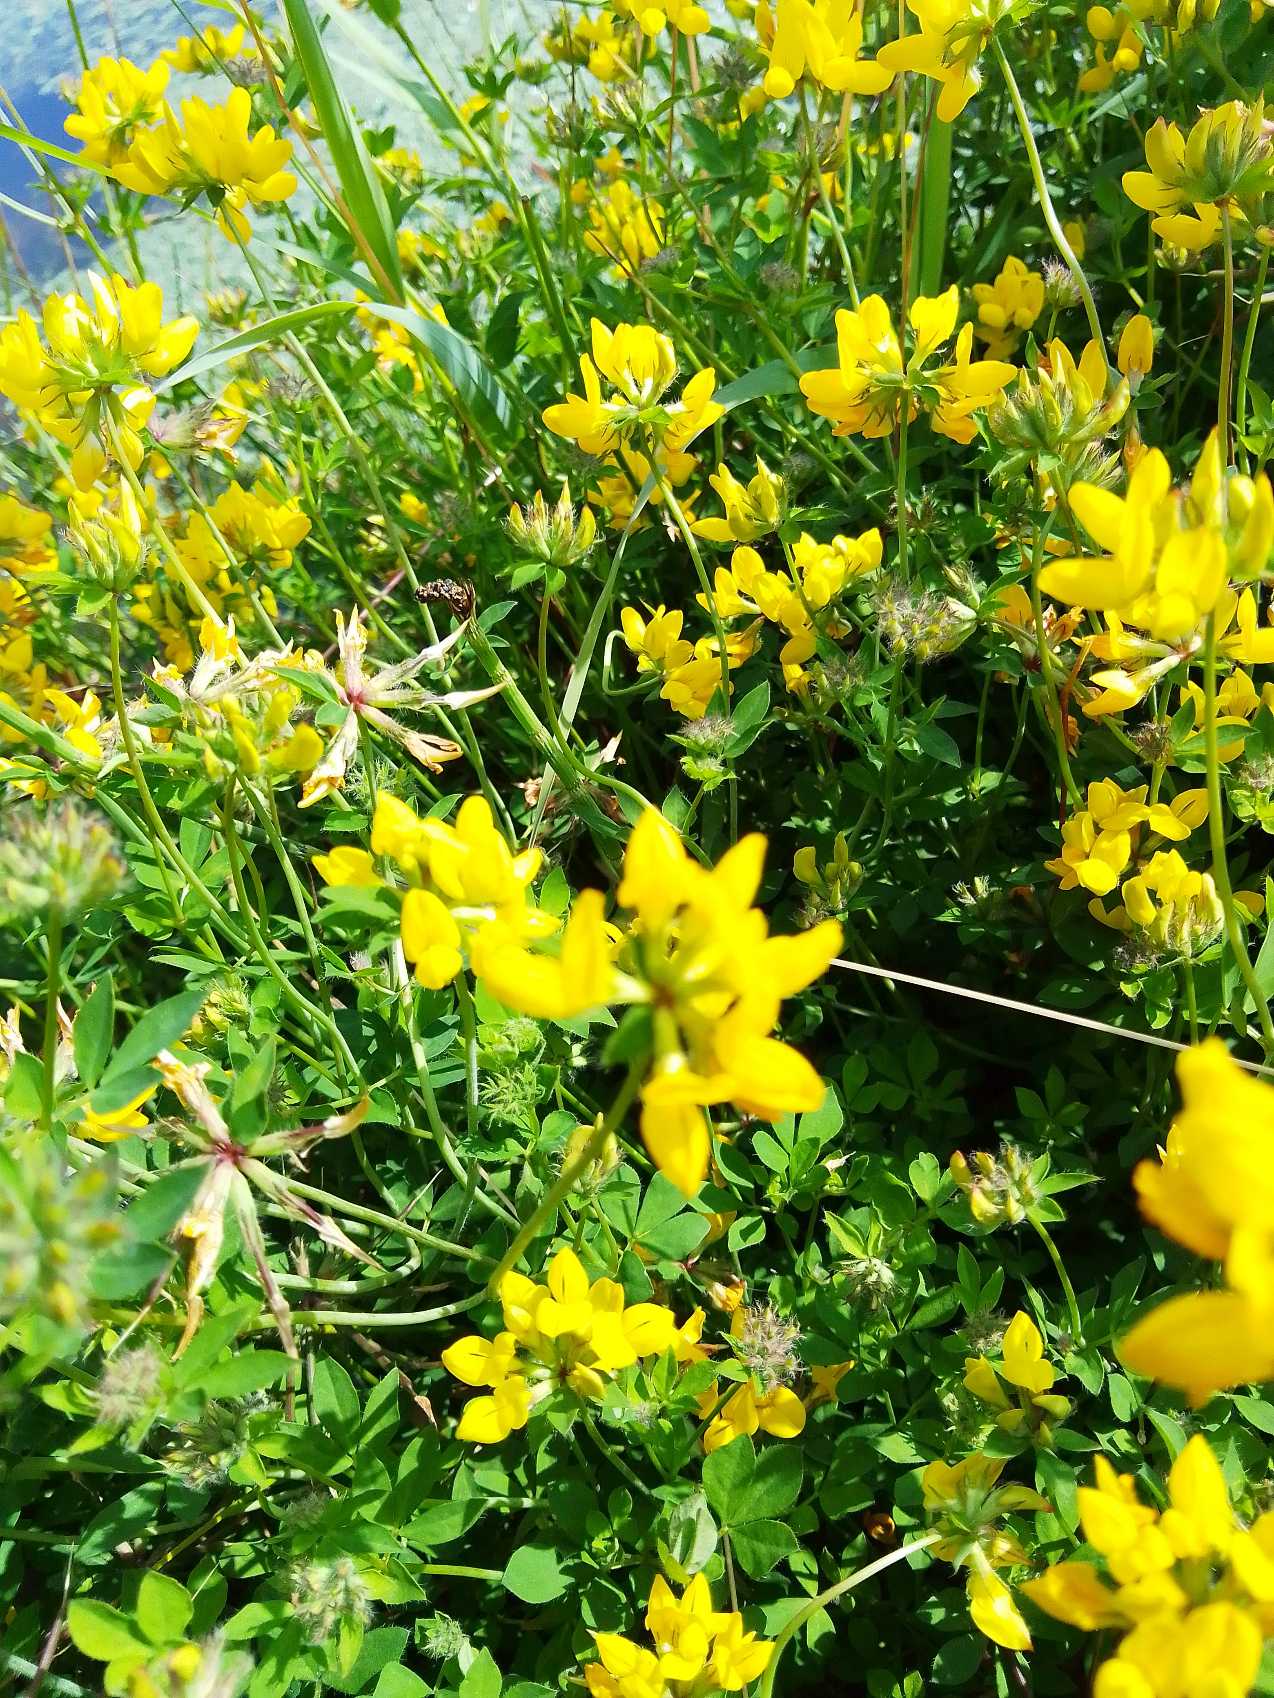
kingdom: Plantae
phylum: Tracheophyta
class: Magnoliopsida
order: Fabales
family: Fabaceae
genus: Lotus
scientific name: Lotus corniculatus
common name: Almindelig kællingetand
